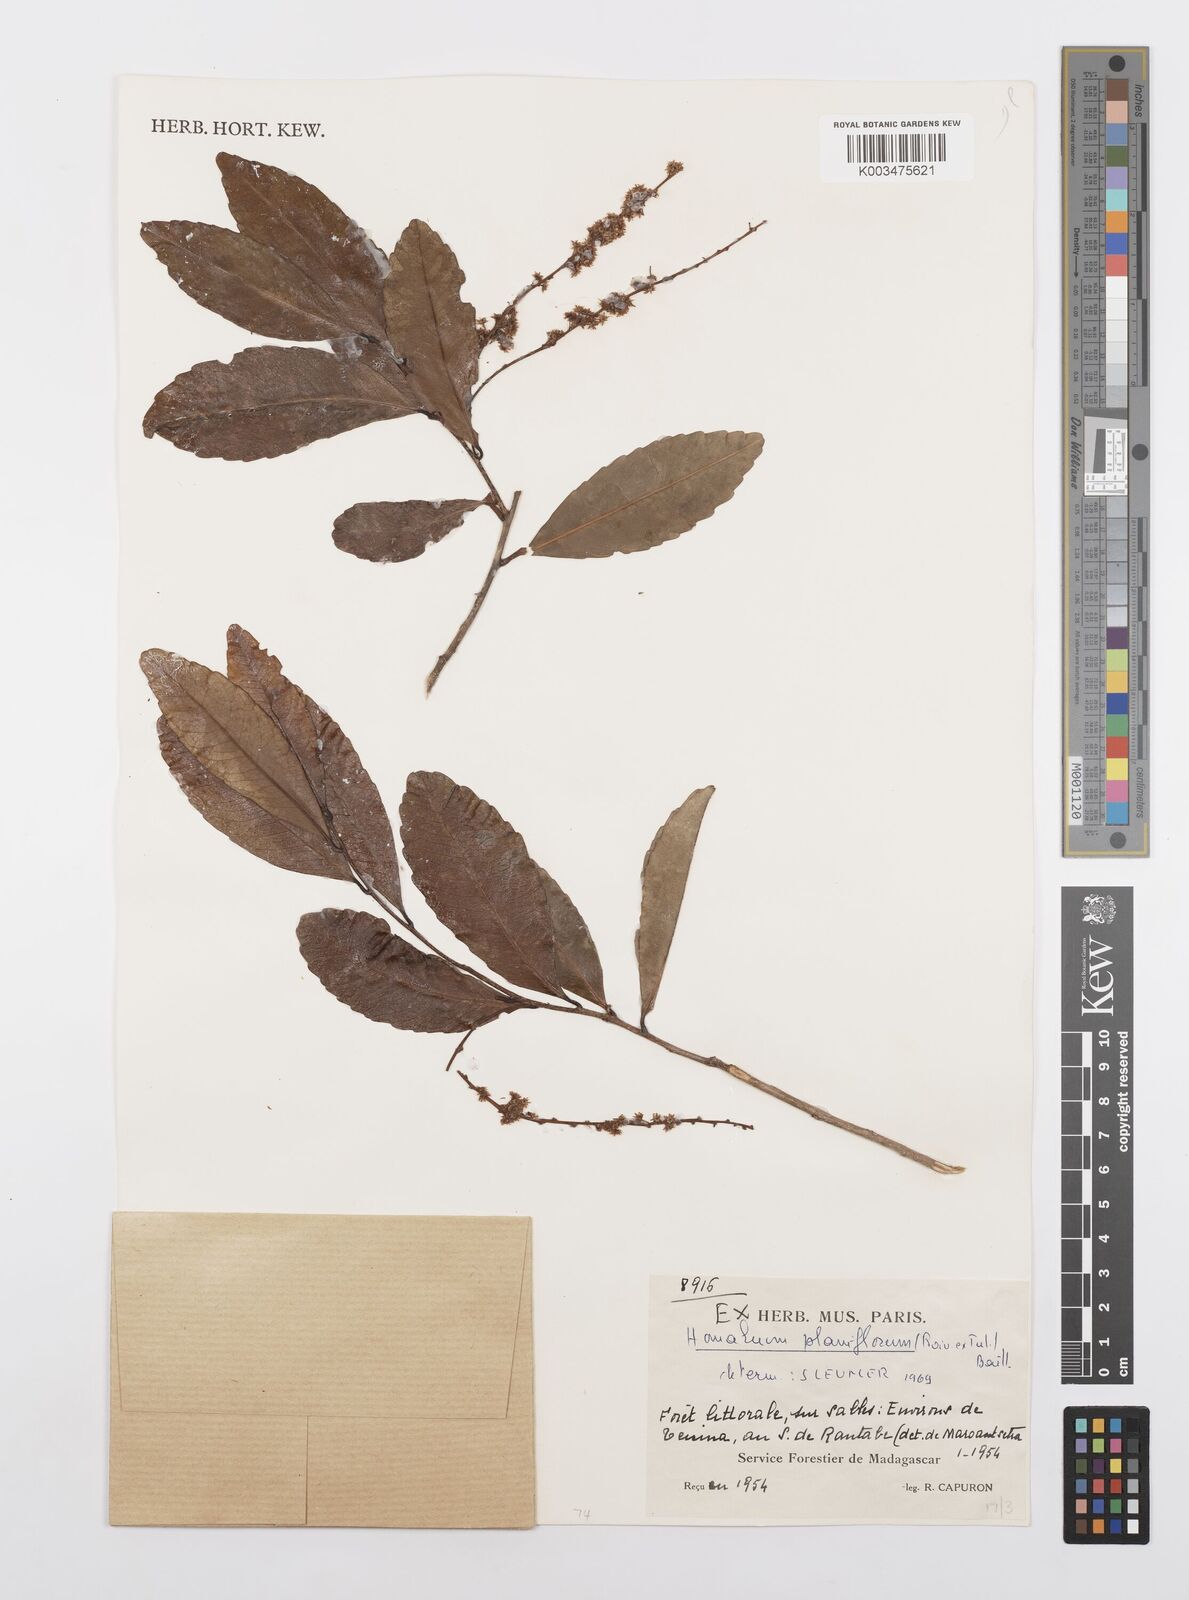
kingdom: Plantae
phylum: Tracheophyta
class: Magnoliopsida
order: Malpighiales
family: Salicaceae
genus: Homalium
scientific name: Homalium planiflorum
